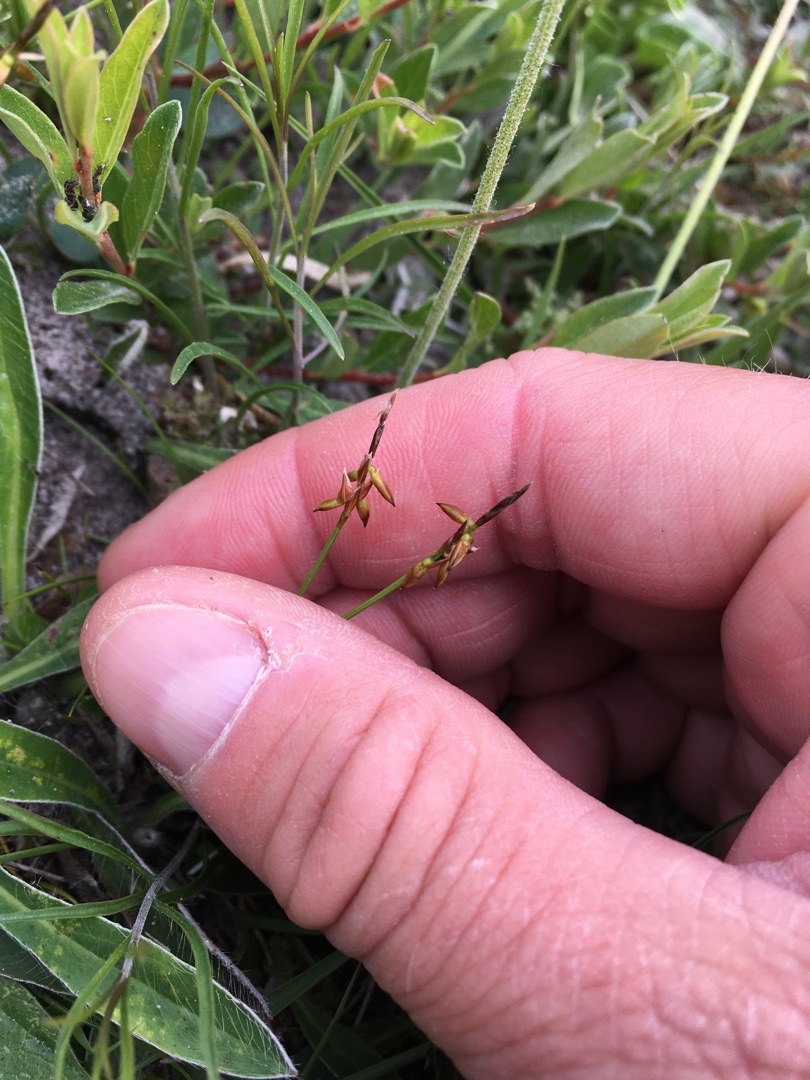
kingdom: Plantae
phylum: Tracheophyta
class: Liliopsida
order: Poales
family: Cyperaceae
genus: Carex
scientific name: Carex pulicaris
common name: Loppe-star
